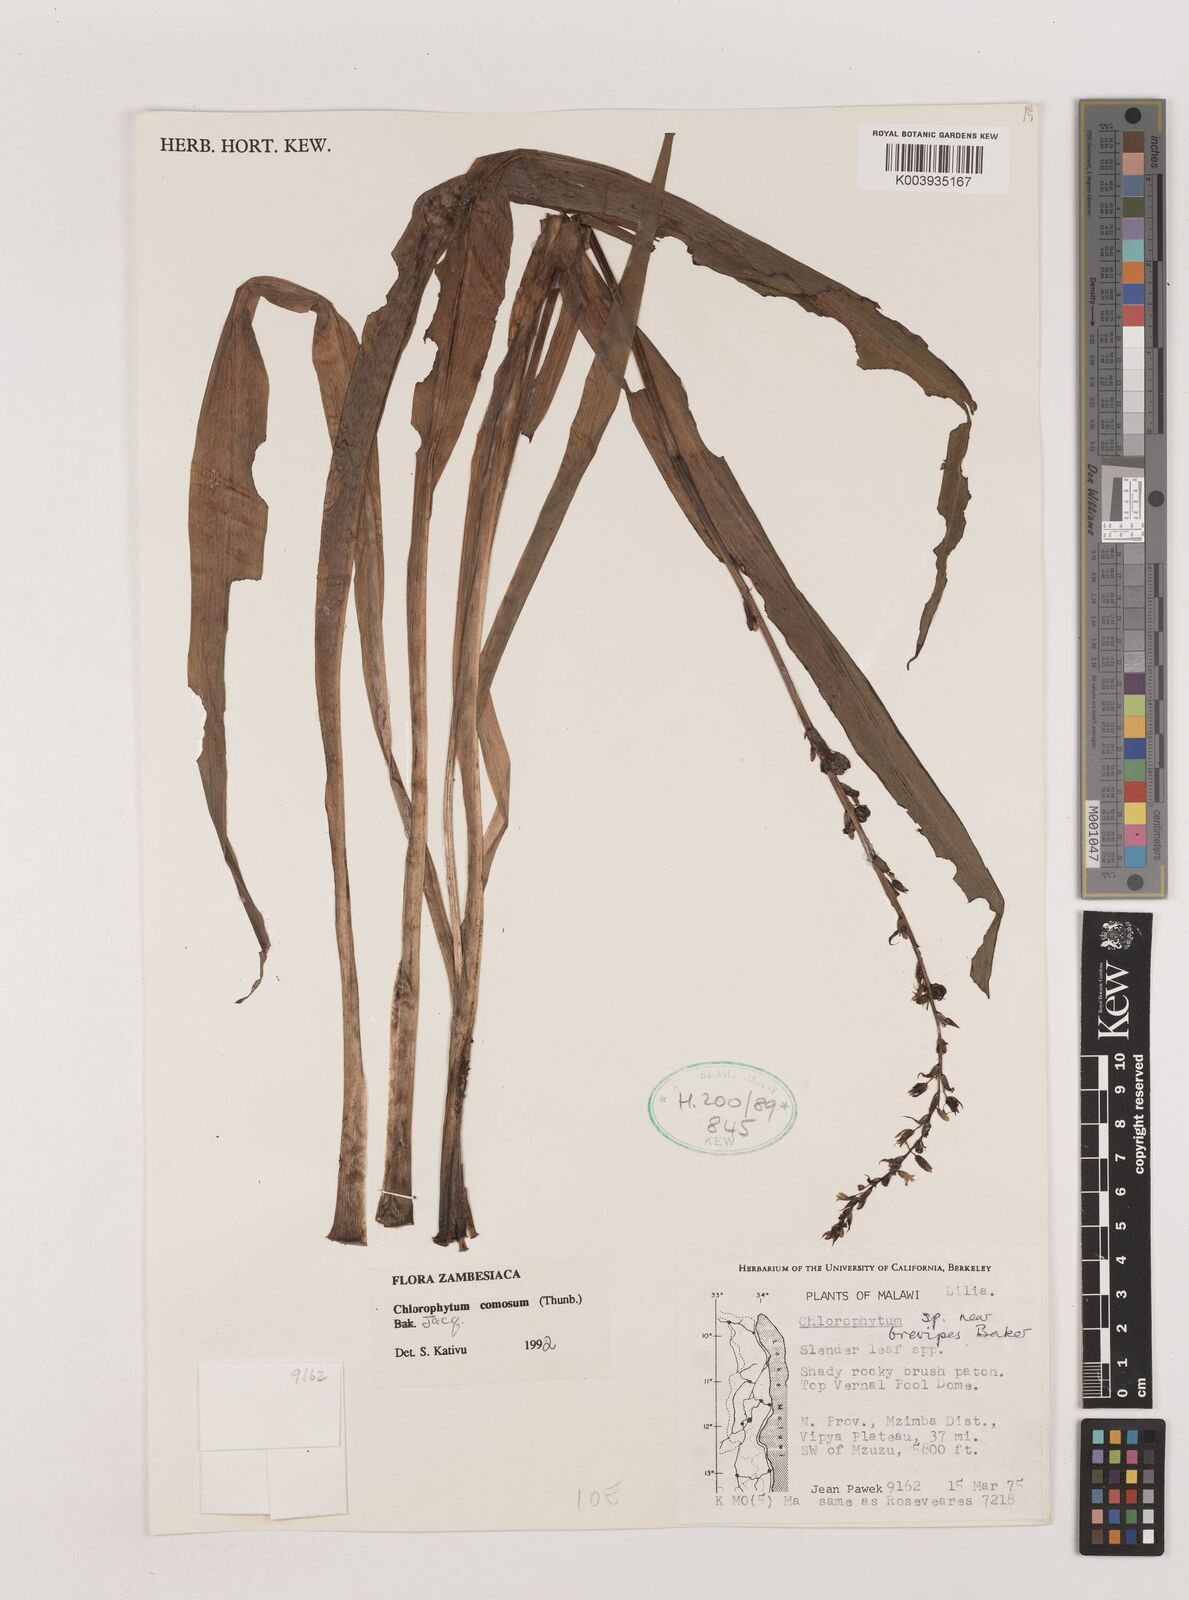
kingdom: Plantae
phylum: Tracheophyta
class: Liliopsida
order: Asparagales
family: Asparagaceae
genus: Chlorophytum
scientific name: Chlorophytum comosum
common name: Spider plant
